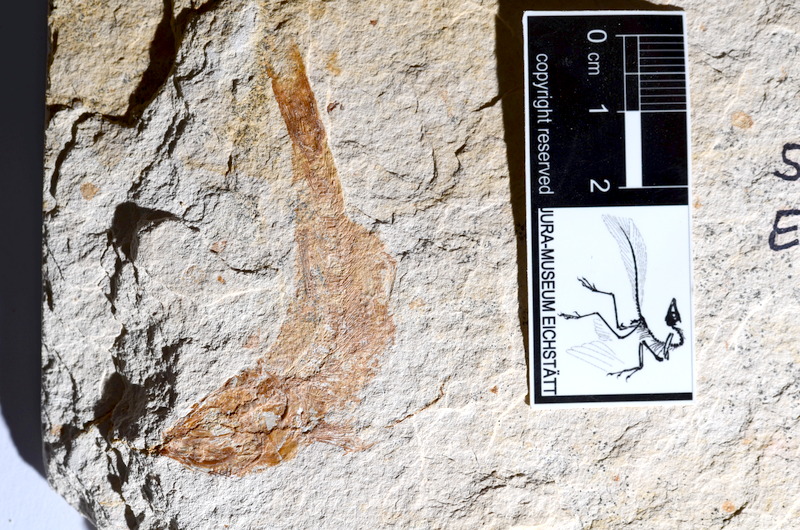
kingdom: Animalia
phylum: Chordata
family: Ascalaboidae
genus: Tharsis
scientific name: Tharsis dubius
